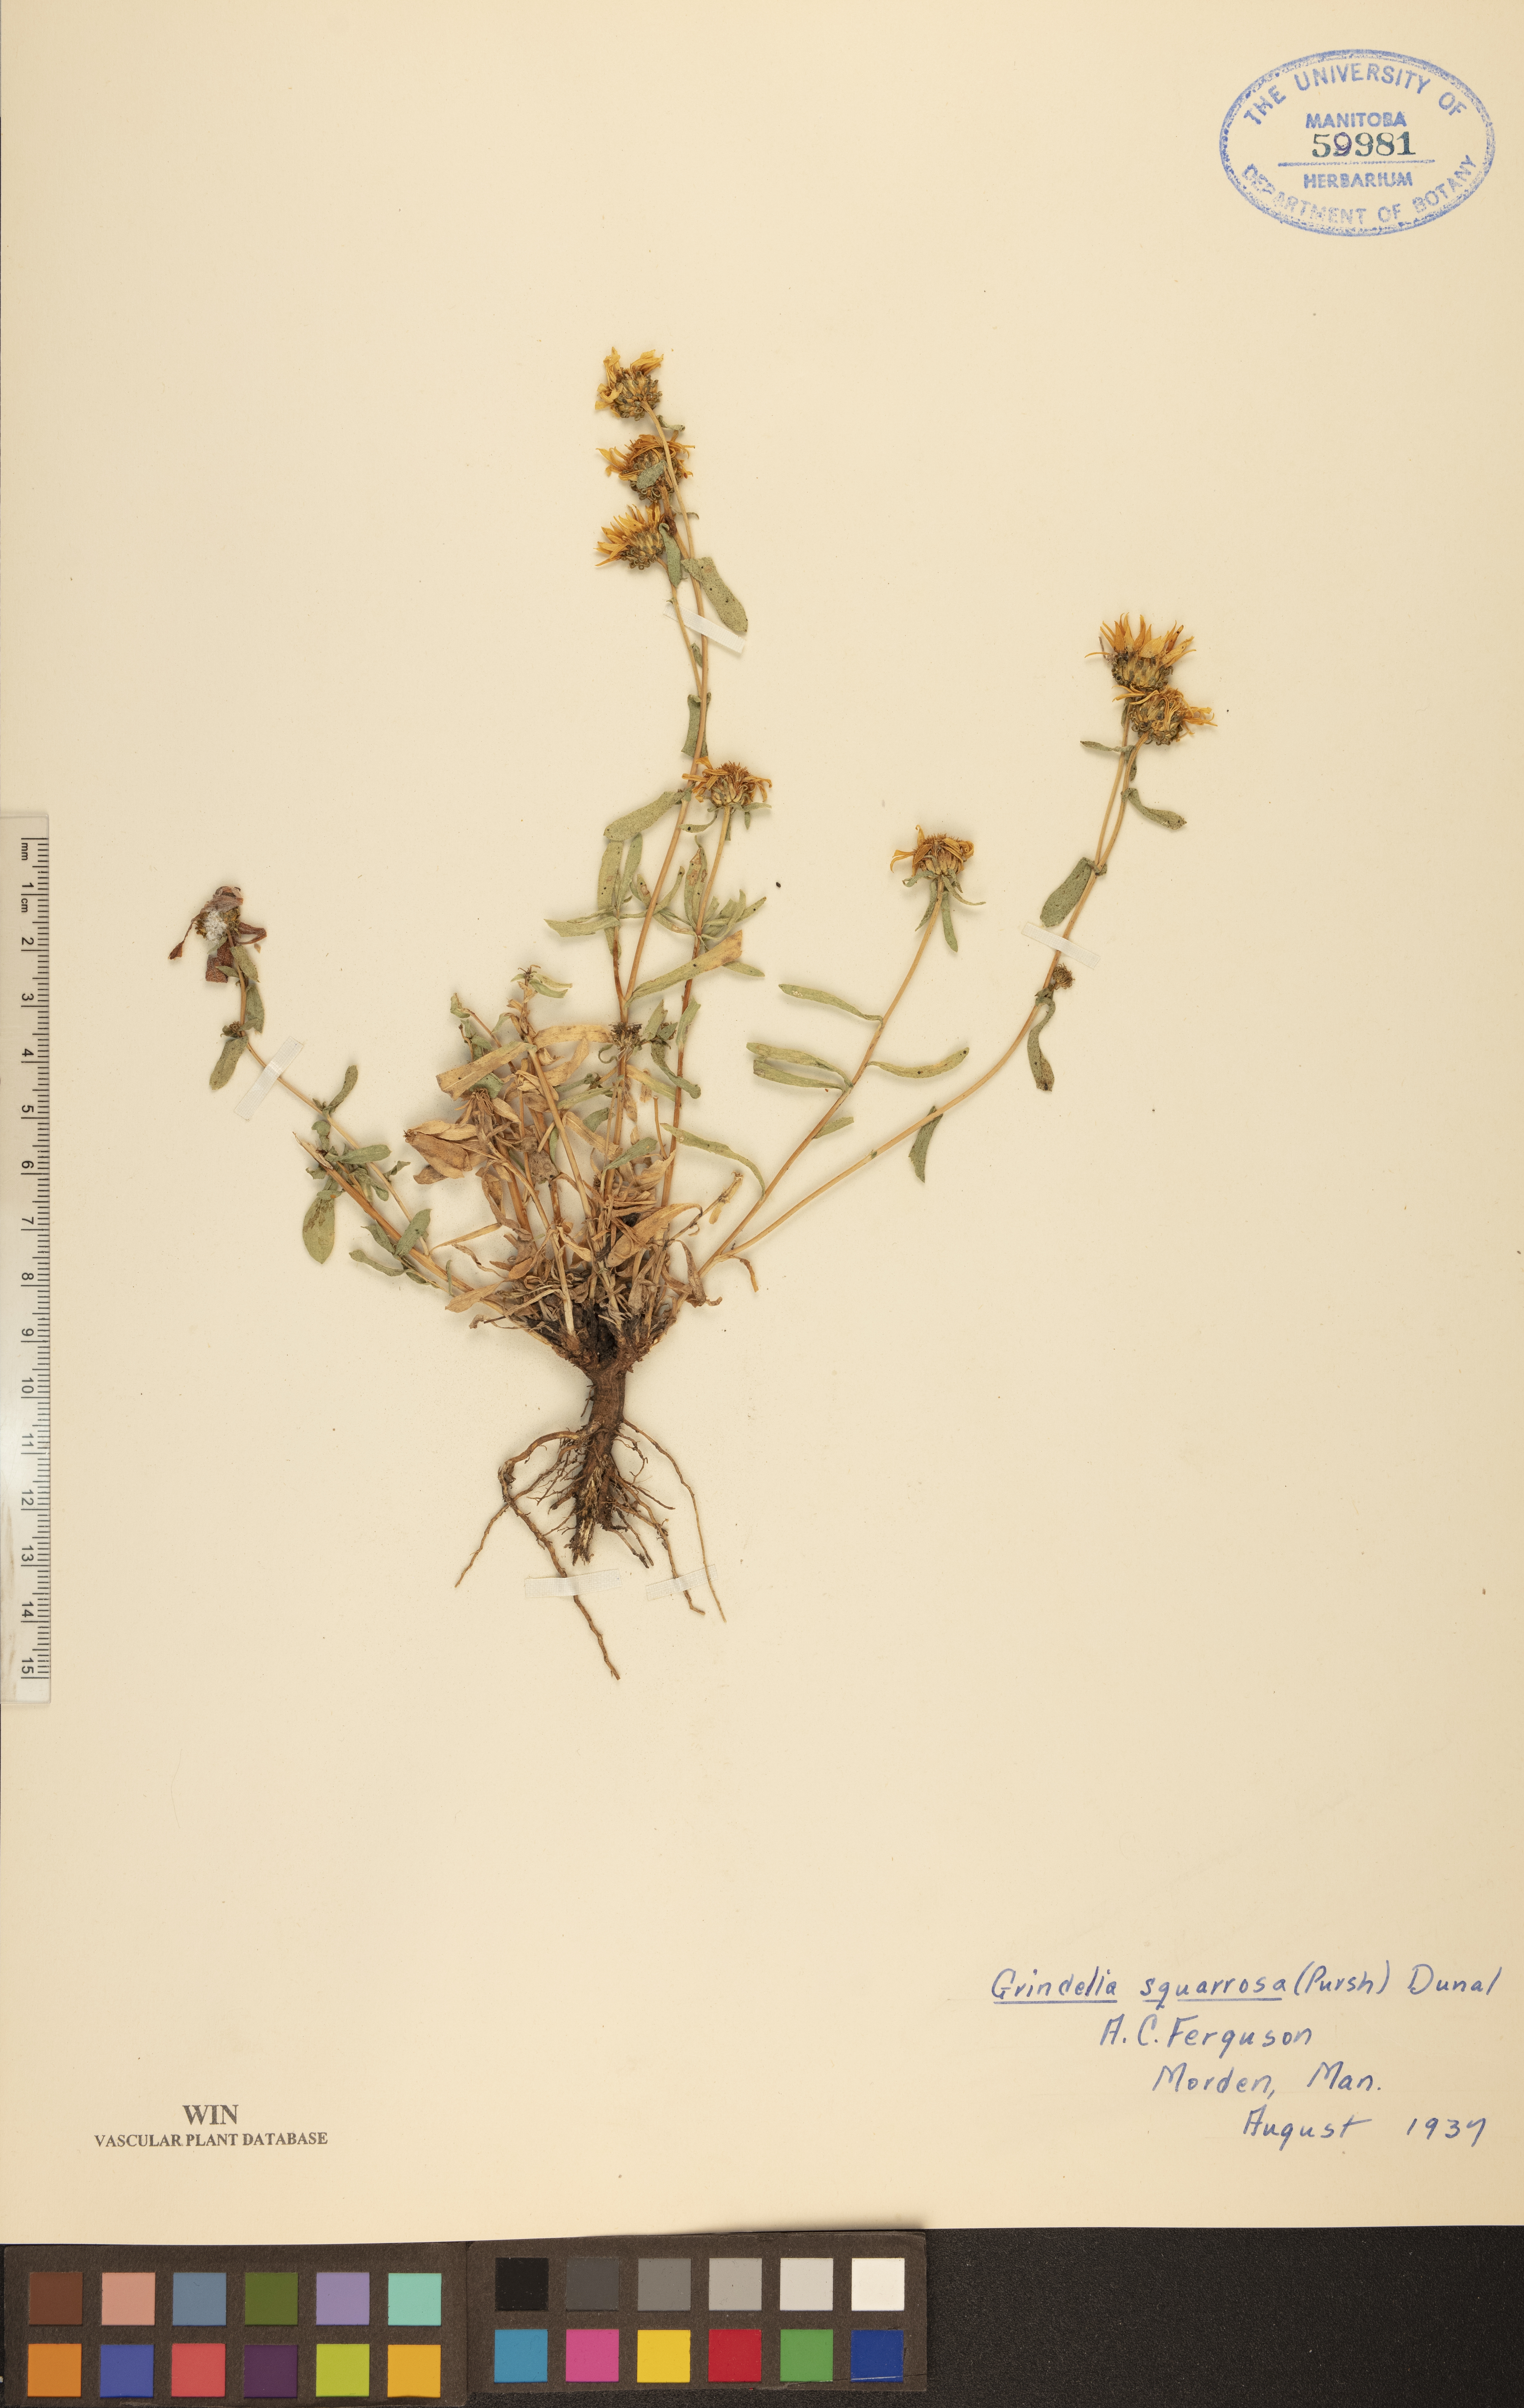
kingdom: Plantae
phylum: Tracheophyta
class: Magnoliopsida
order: Asterales
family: Asteraceae
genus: Grindelia
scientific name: Grindelia squarrosa
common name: Curly-cup gumweed
